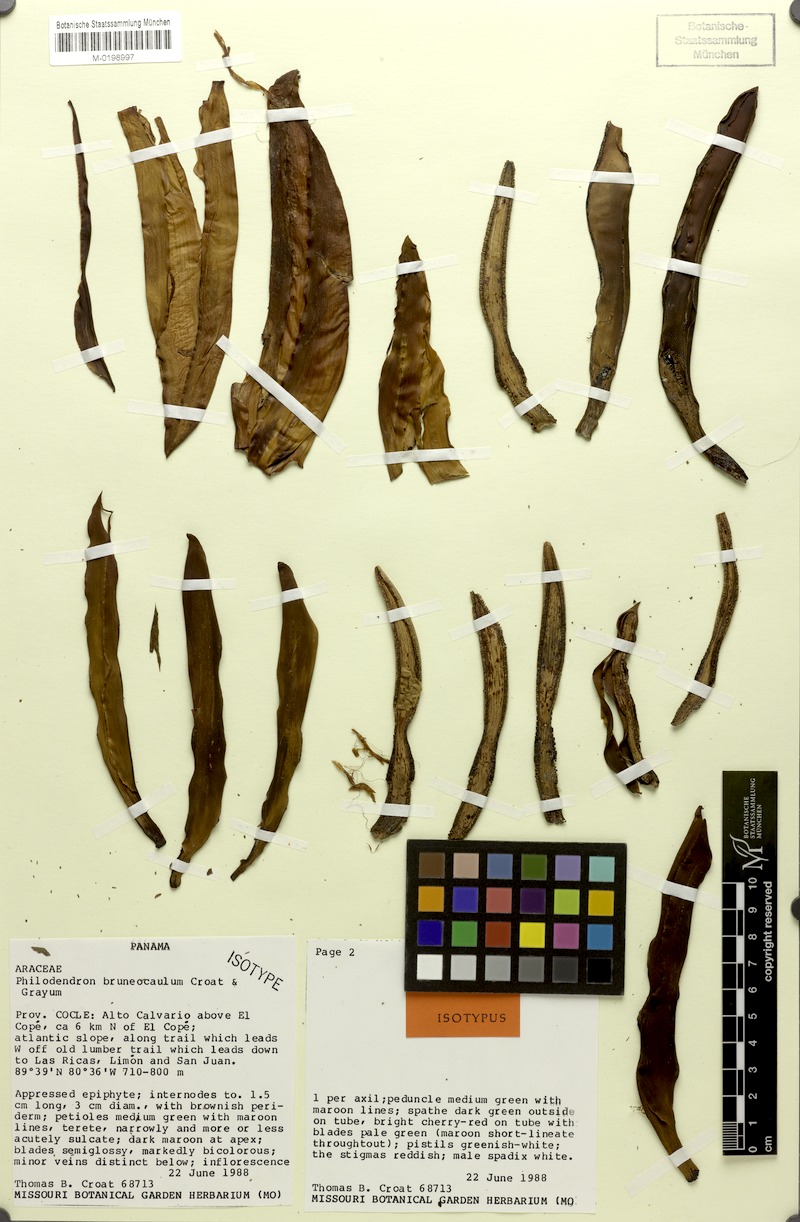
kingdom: Plantae
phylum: Tracheophyta
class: Liliopsida
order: Alismatales
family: Araceae
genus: Philodendron
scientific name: Philodendron brunneicaule
